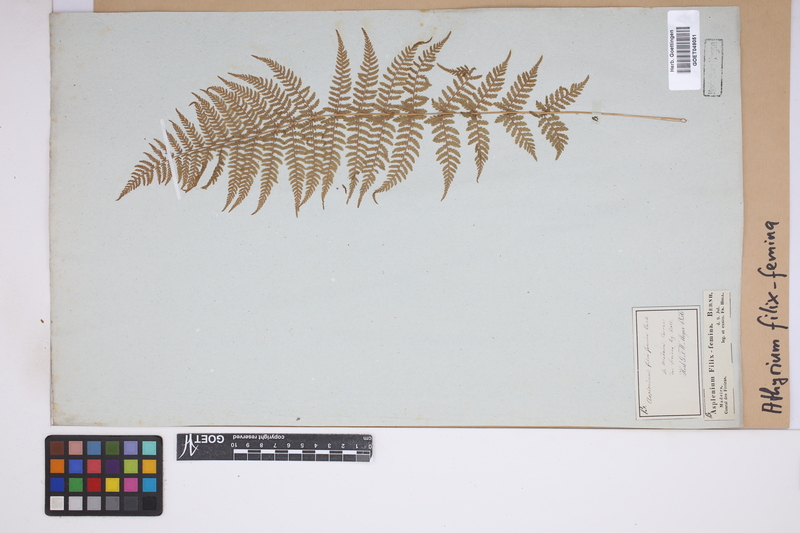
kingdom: Plantae
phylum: Tracheophyta
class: Polypodiopsida
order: Polypodiales
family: Athyriaceae
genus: Athyrium
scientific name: Athyrium filix-femina
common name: Lady fern
